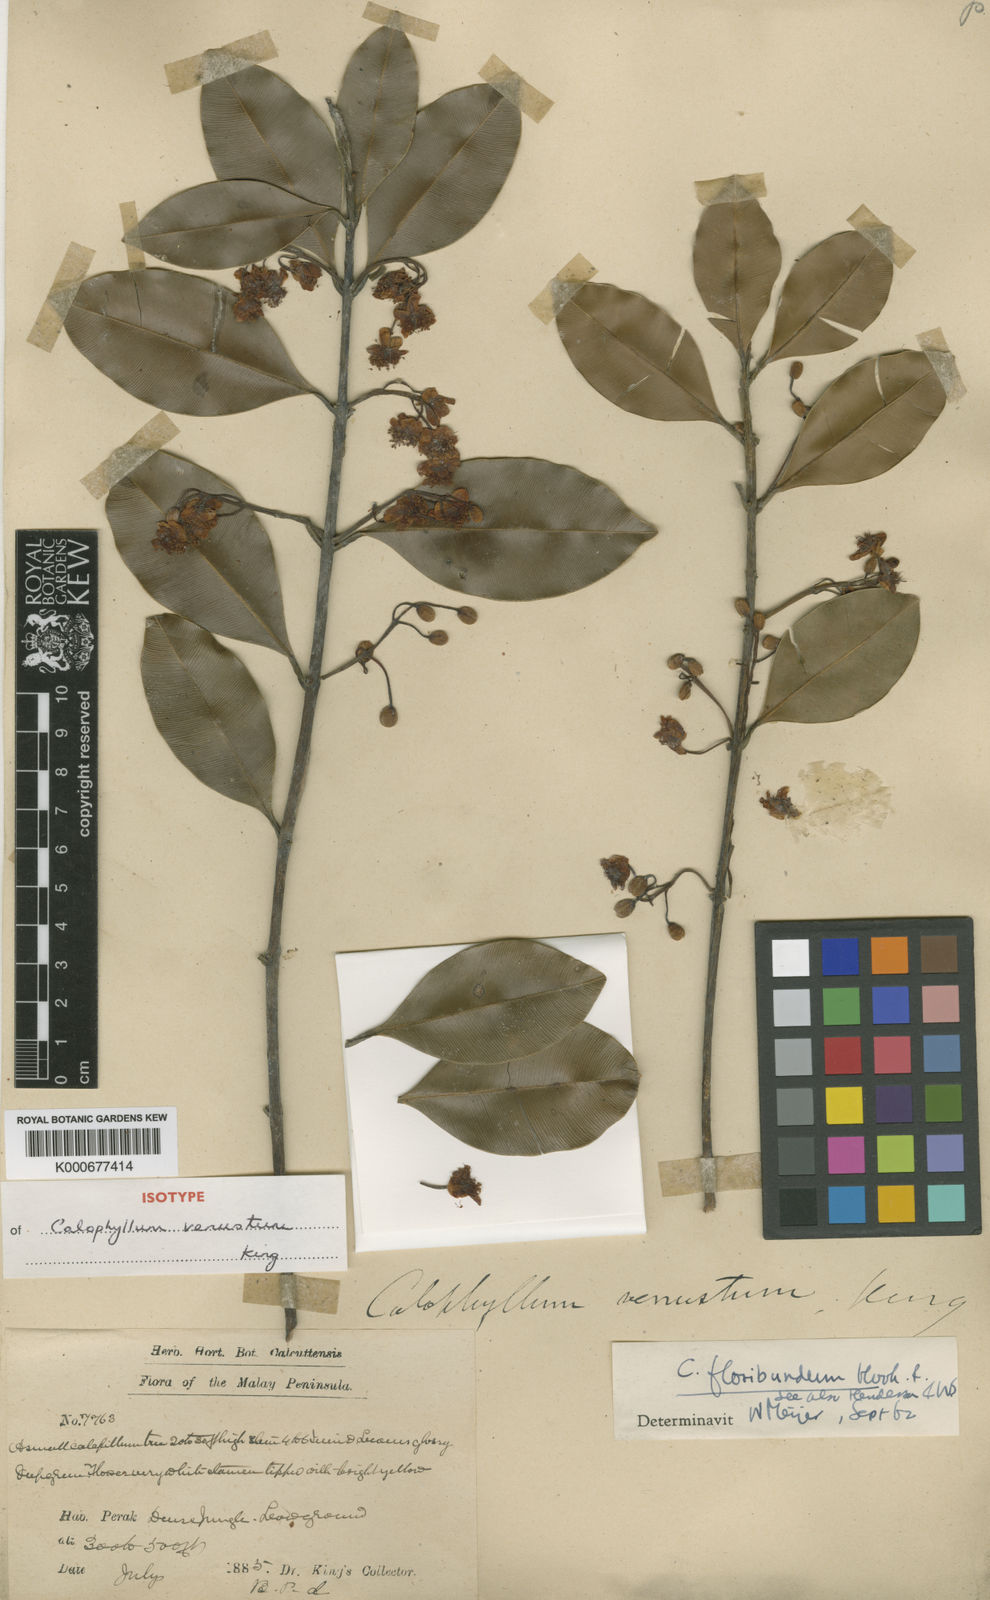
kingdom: Plantae
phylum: Tracheophyta
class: Magnoliopsida
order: Malpighiales
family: Calophyllaceae
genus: Calophyllum
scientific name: Calophyllum tetrapterum
